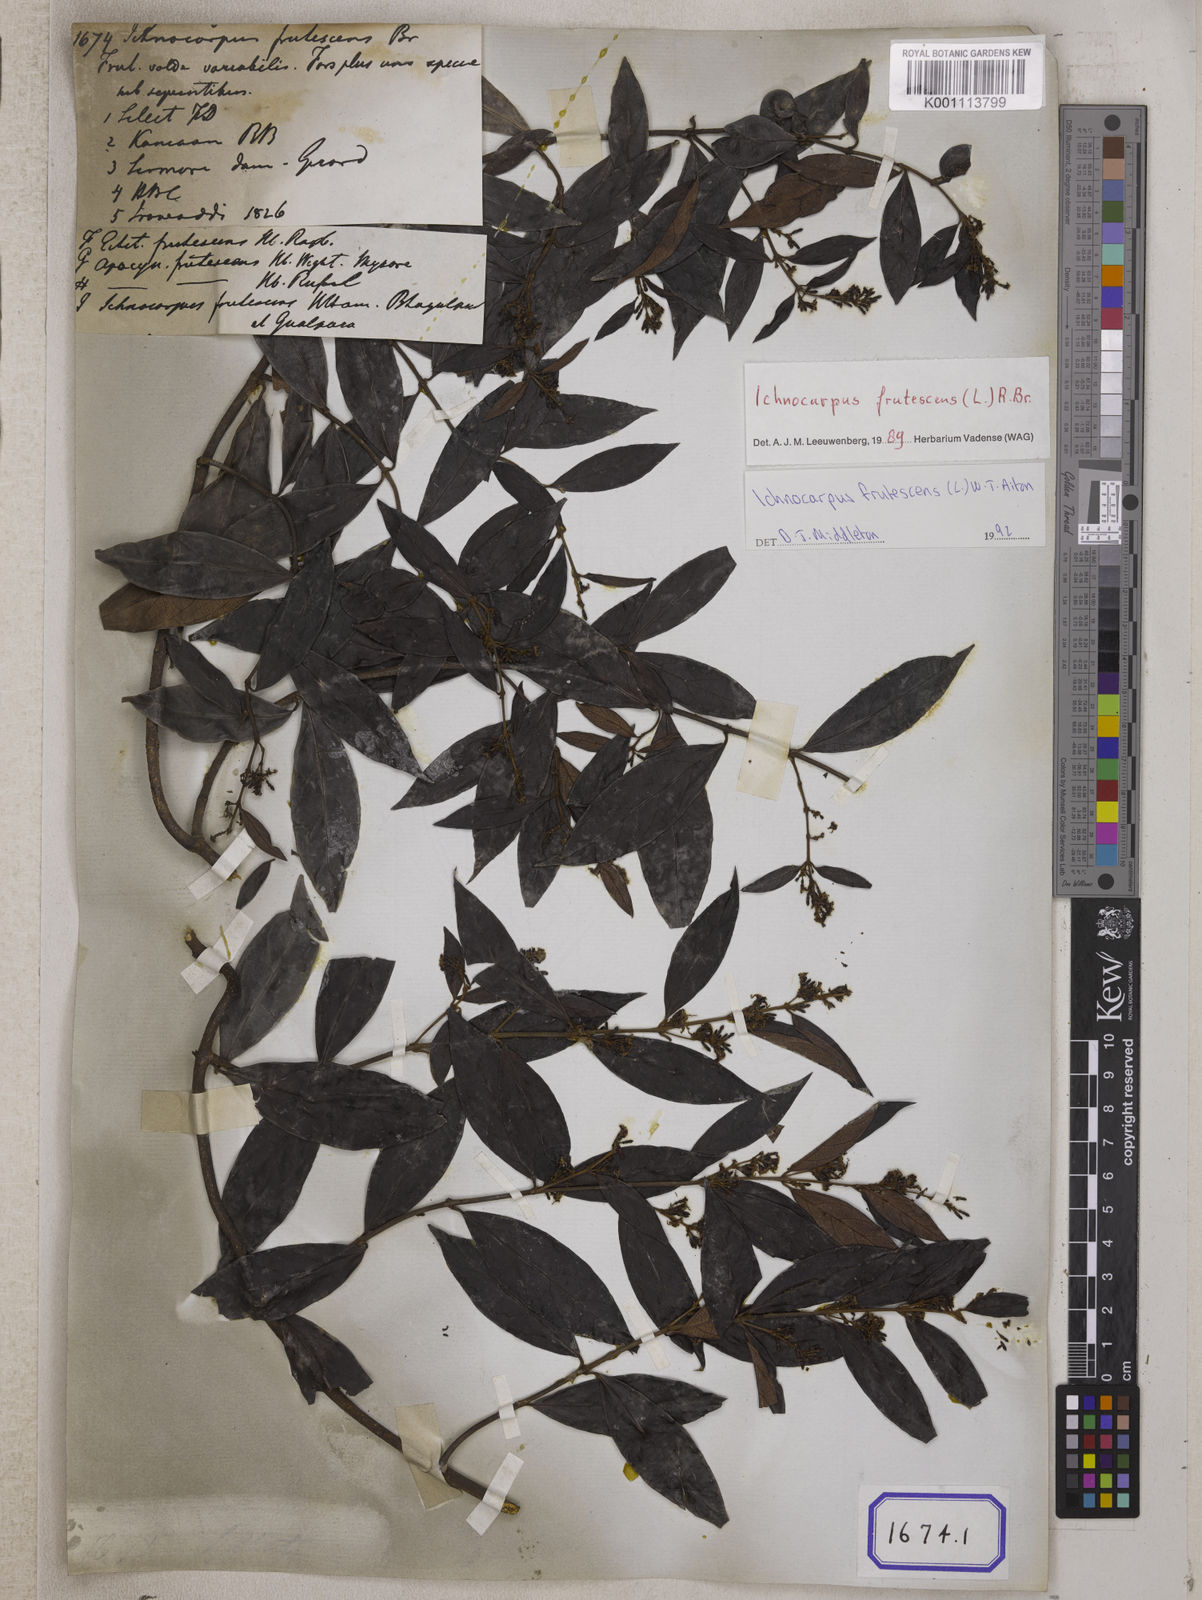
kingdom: Plantae
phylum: Tracheophyta
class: Magnoliopsida
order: Gentianales
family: Apocynaceae
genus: Ichnocarpus
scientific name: Ichnocarpus
